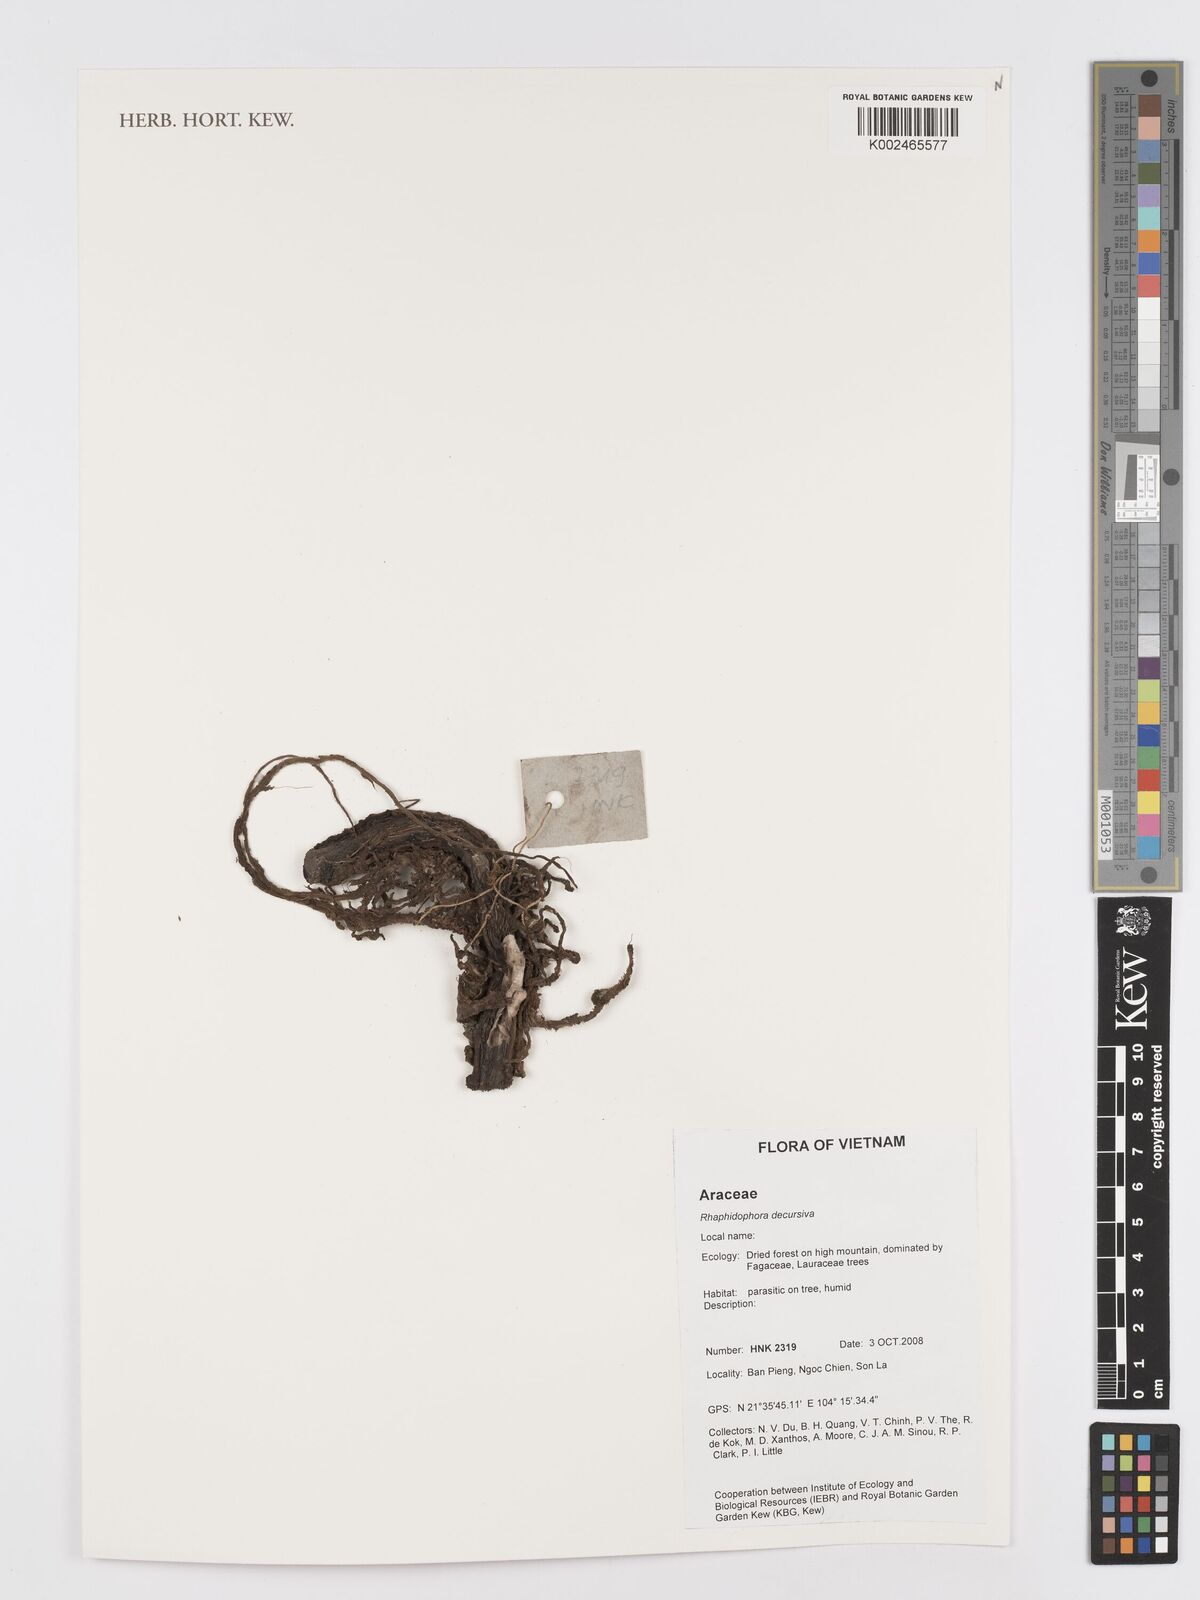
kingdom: Plantae
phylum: Tracheophyta
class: Liliopsida
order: Alismatales
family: Araceae
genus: Rhaphidophora
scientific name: Rhaphidophora decursiva
